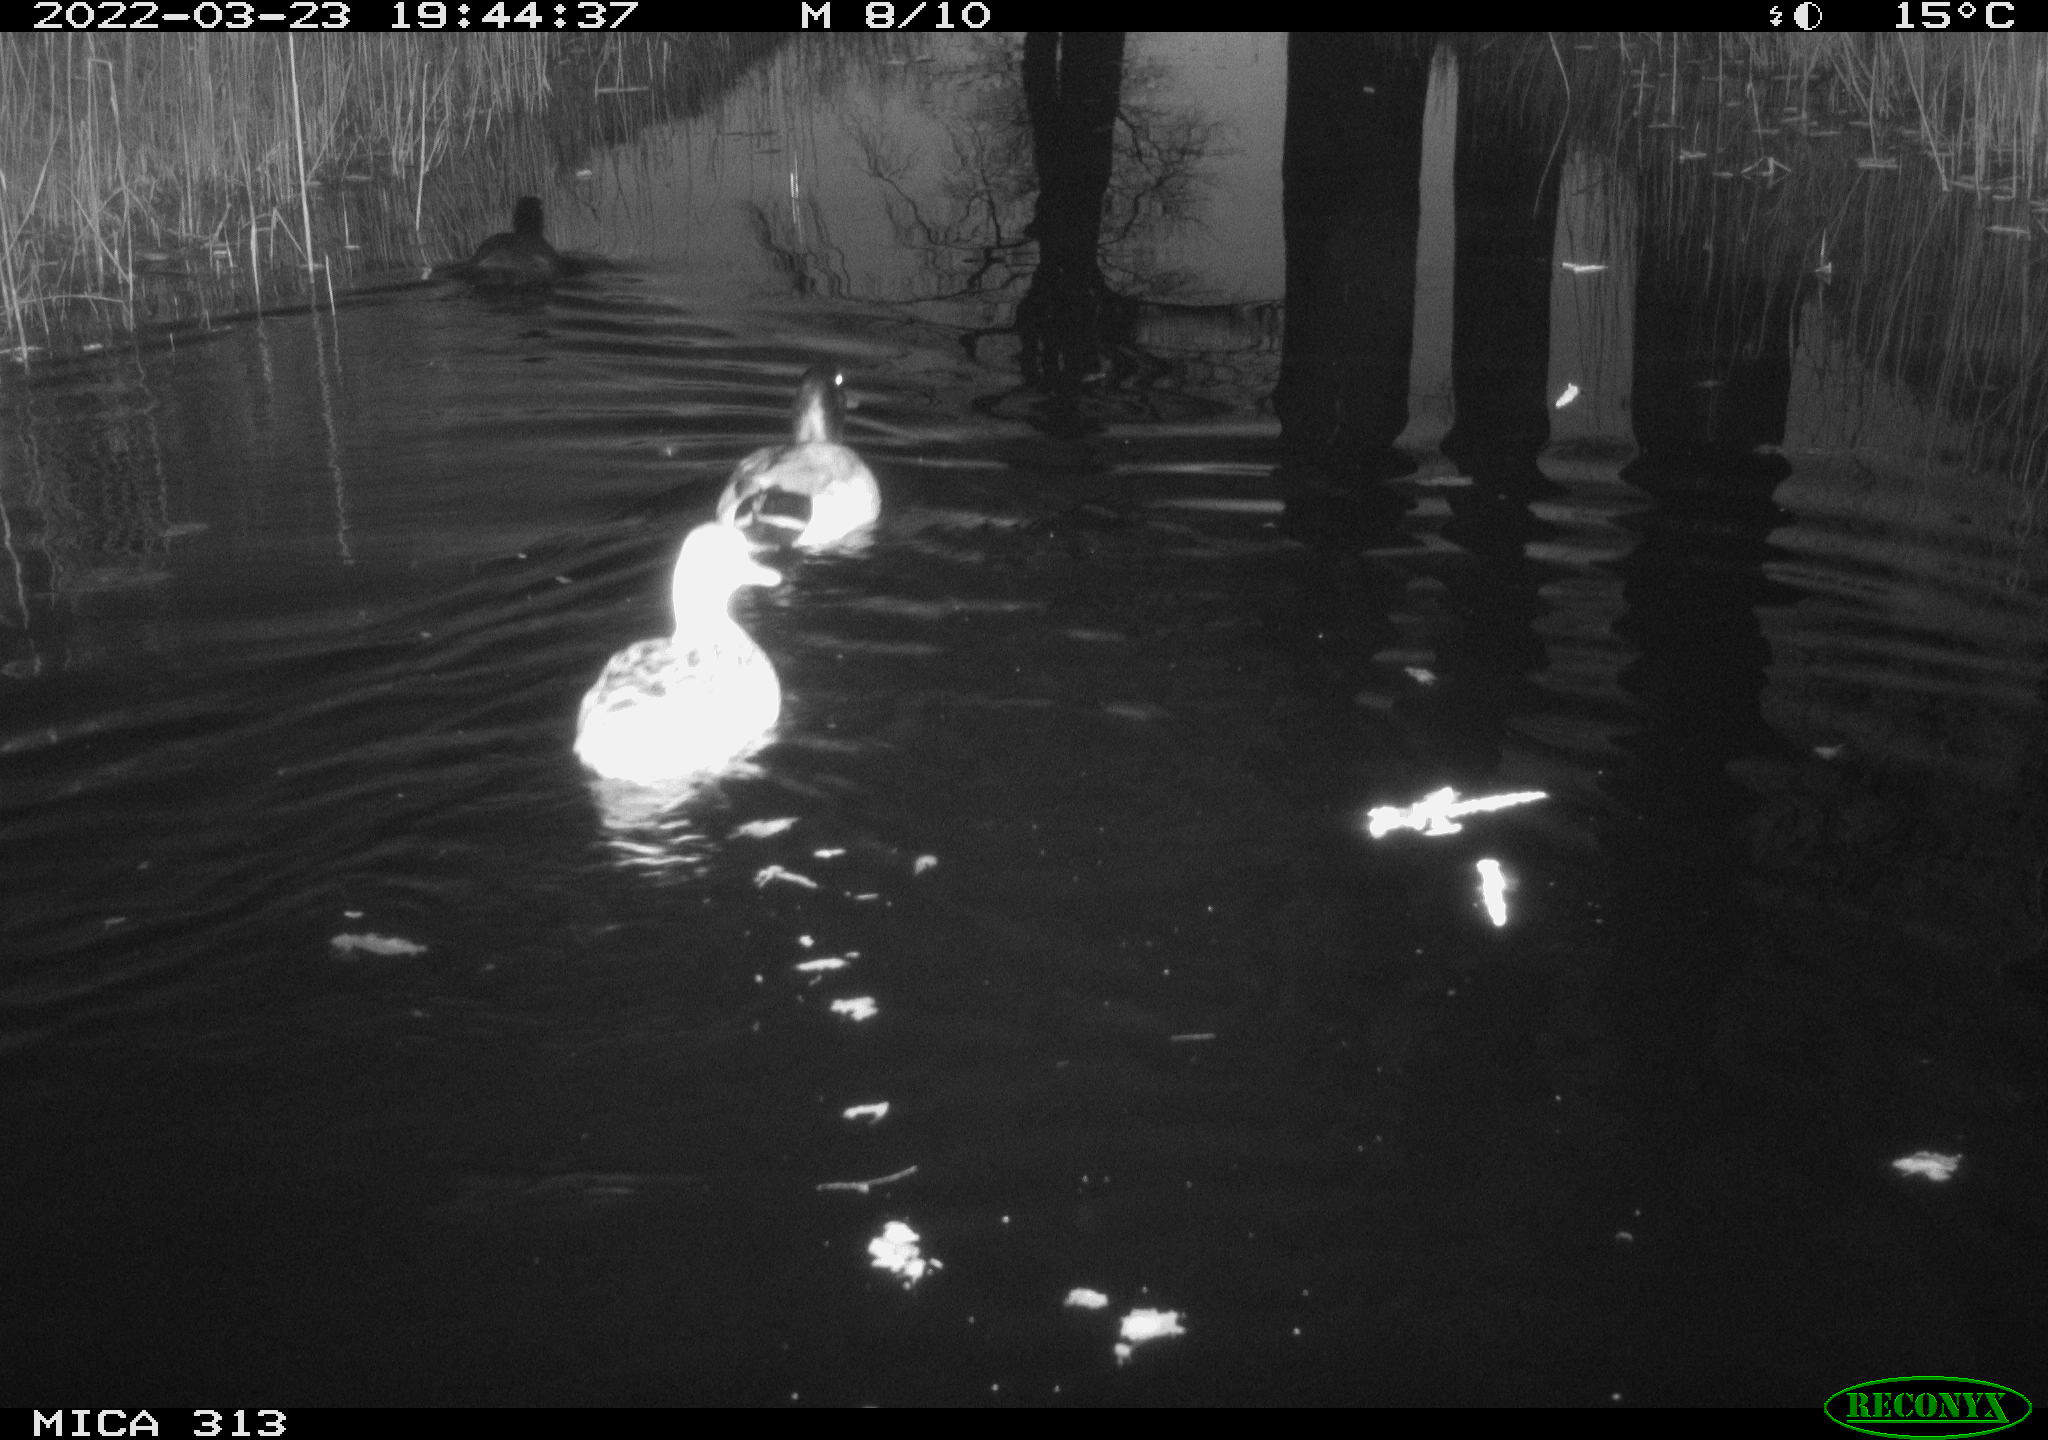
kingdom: Animalia
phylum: Chordata
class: Aves
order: Gruiformes
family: Rallidae
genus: Fulica
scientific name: Fulica atra
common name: Eurasian coot
